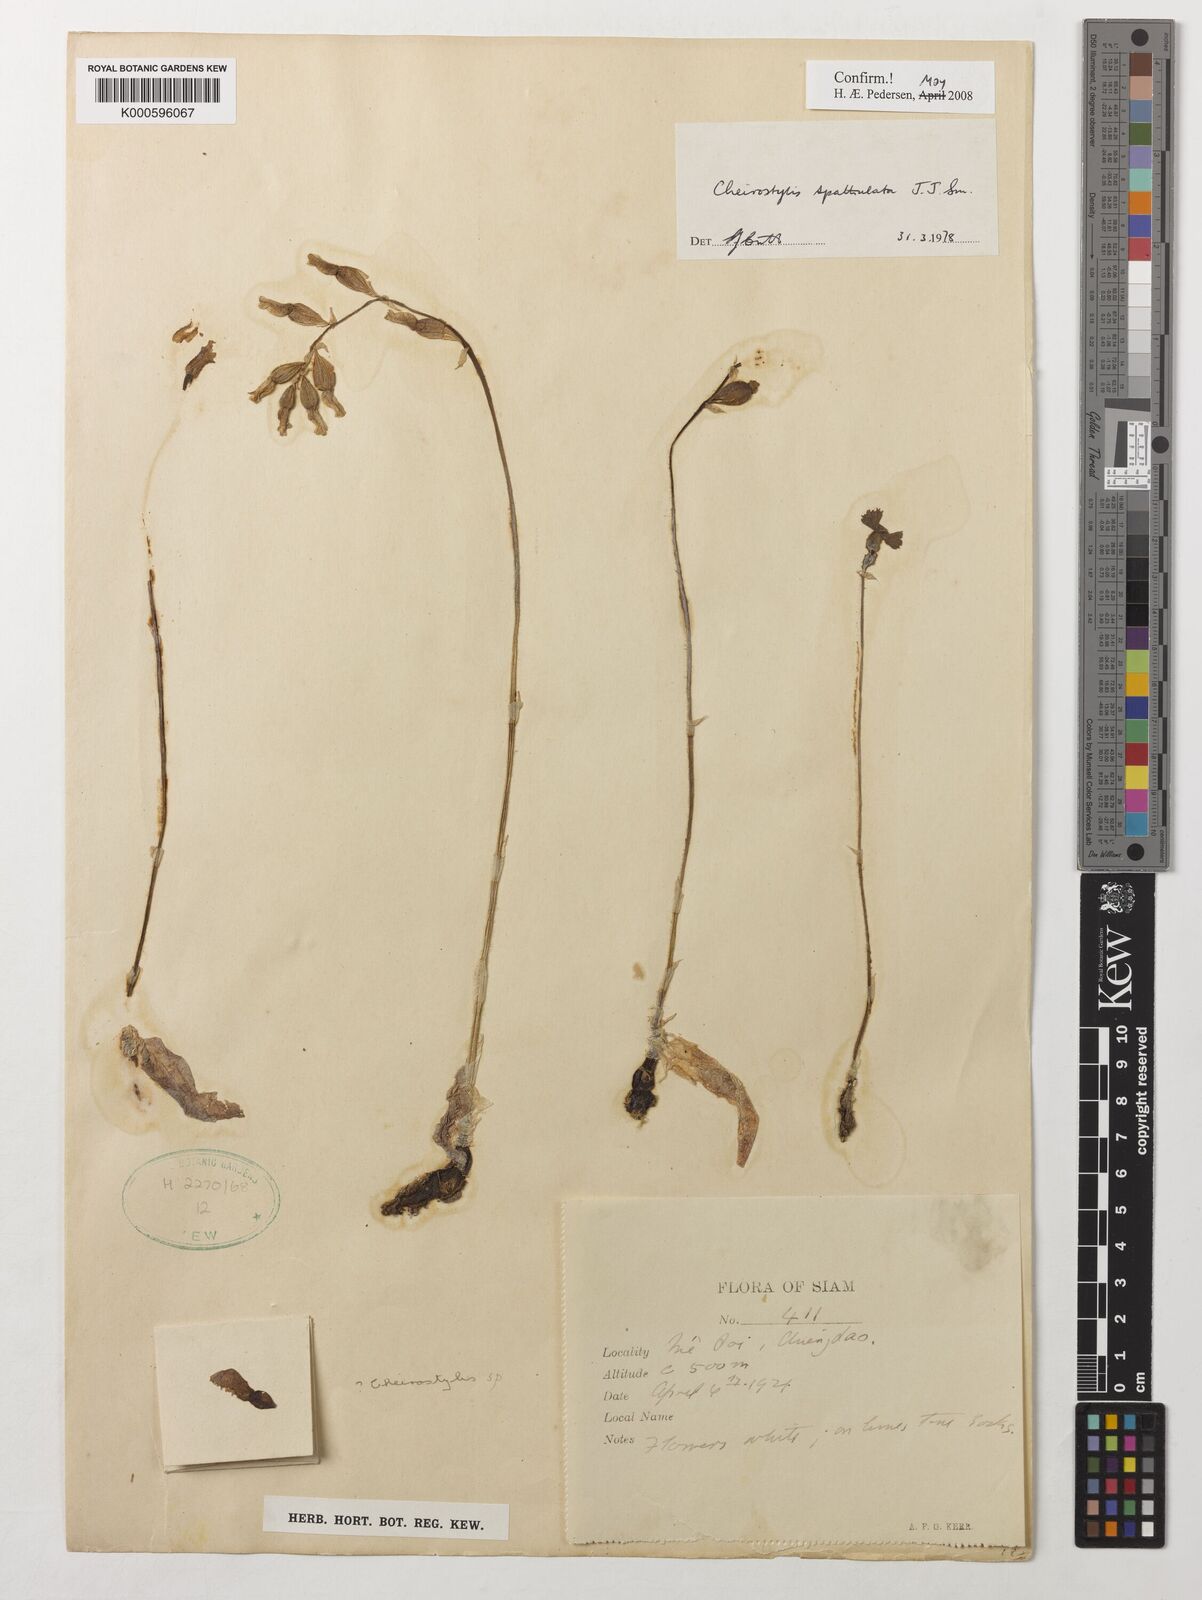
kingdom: Plantae
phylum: Tracheophyta
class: Liliopsida
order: Asparagales
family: Orchidaceae
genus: Cheirostylis
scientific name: Cheirostylis spathulata
